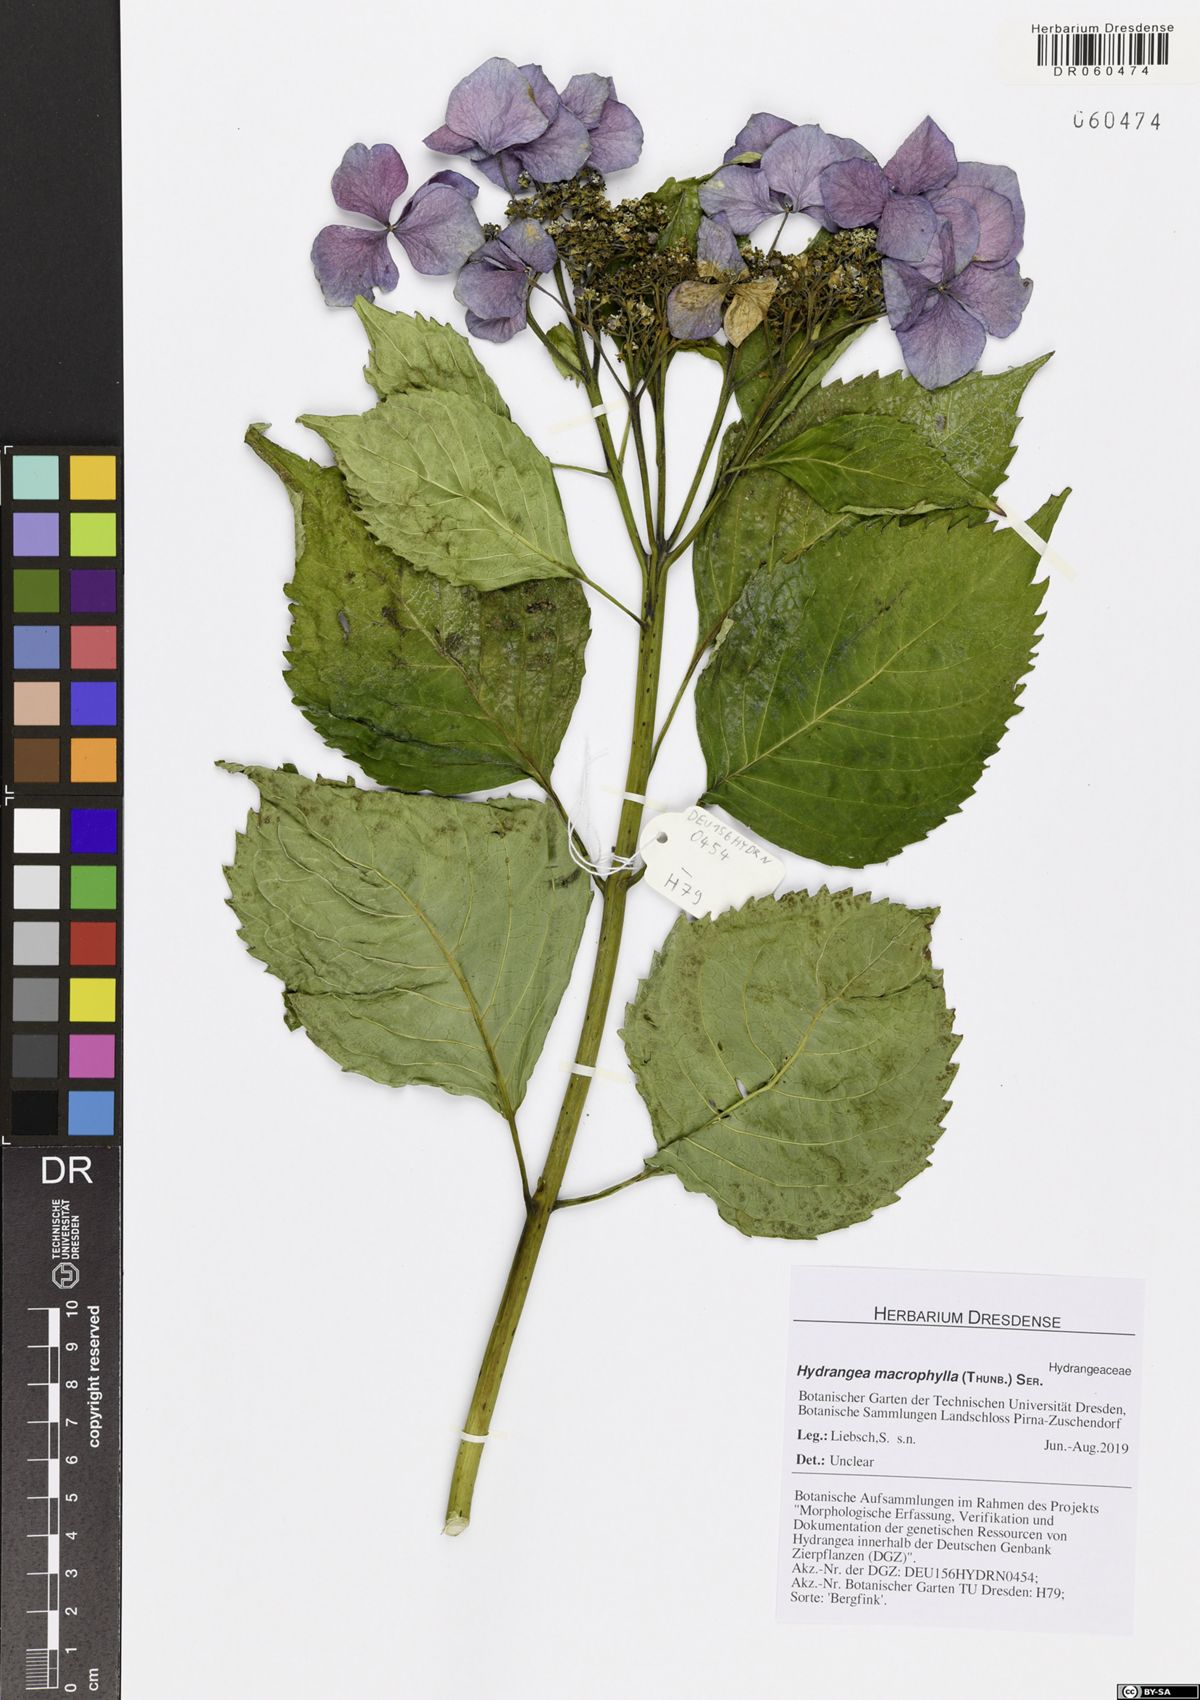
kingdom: Plantae
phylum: Tracheophyta
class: Magnoliopsida
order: Cornales
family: Hydrangeaceae
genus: Hydrangea
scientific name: Hydrangea macrophylla
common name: Hydrangea
